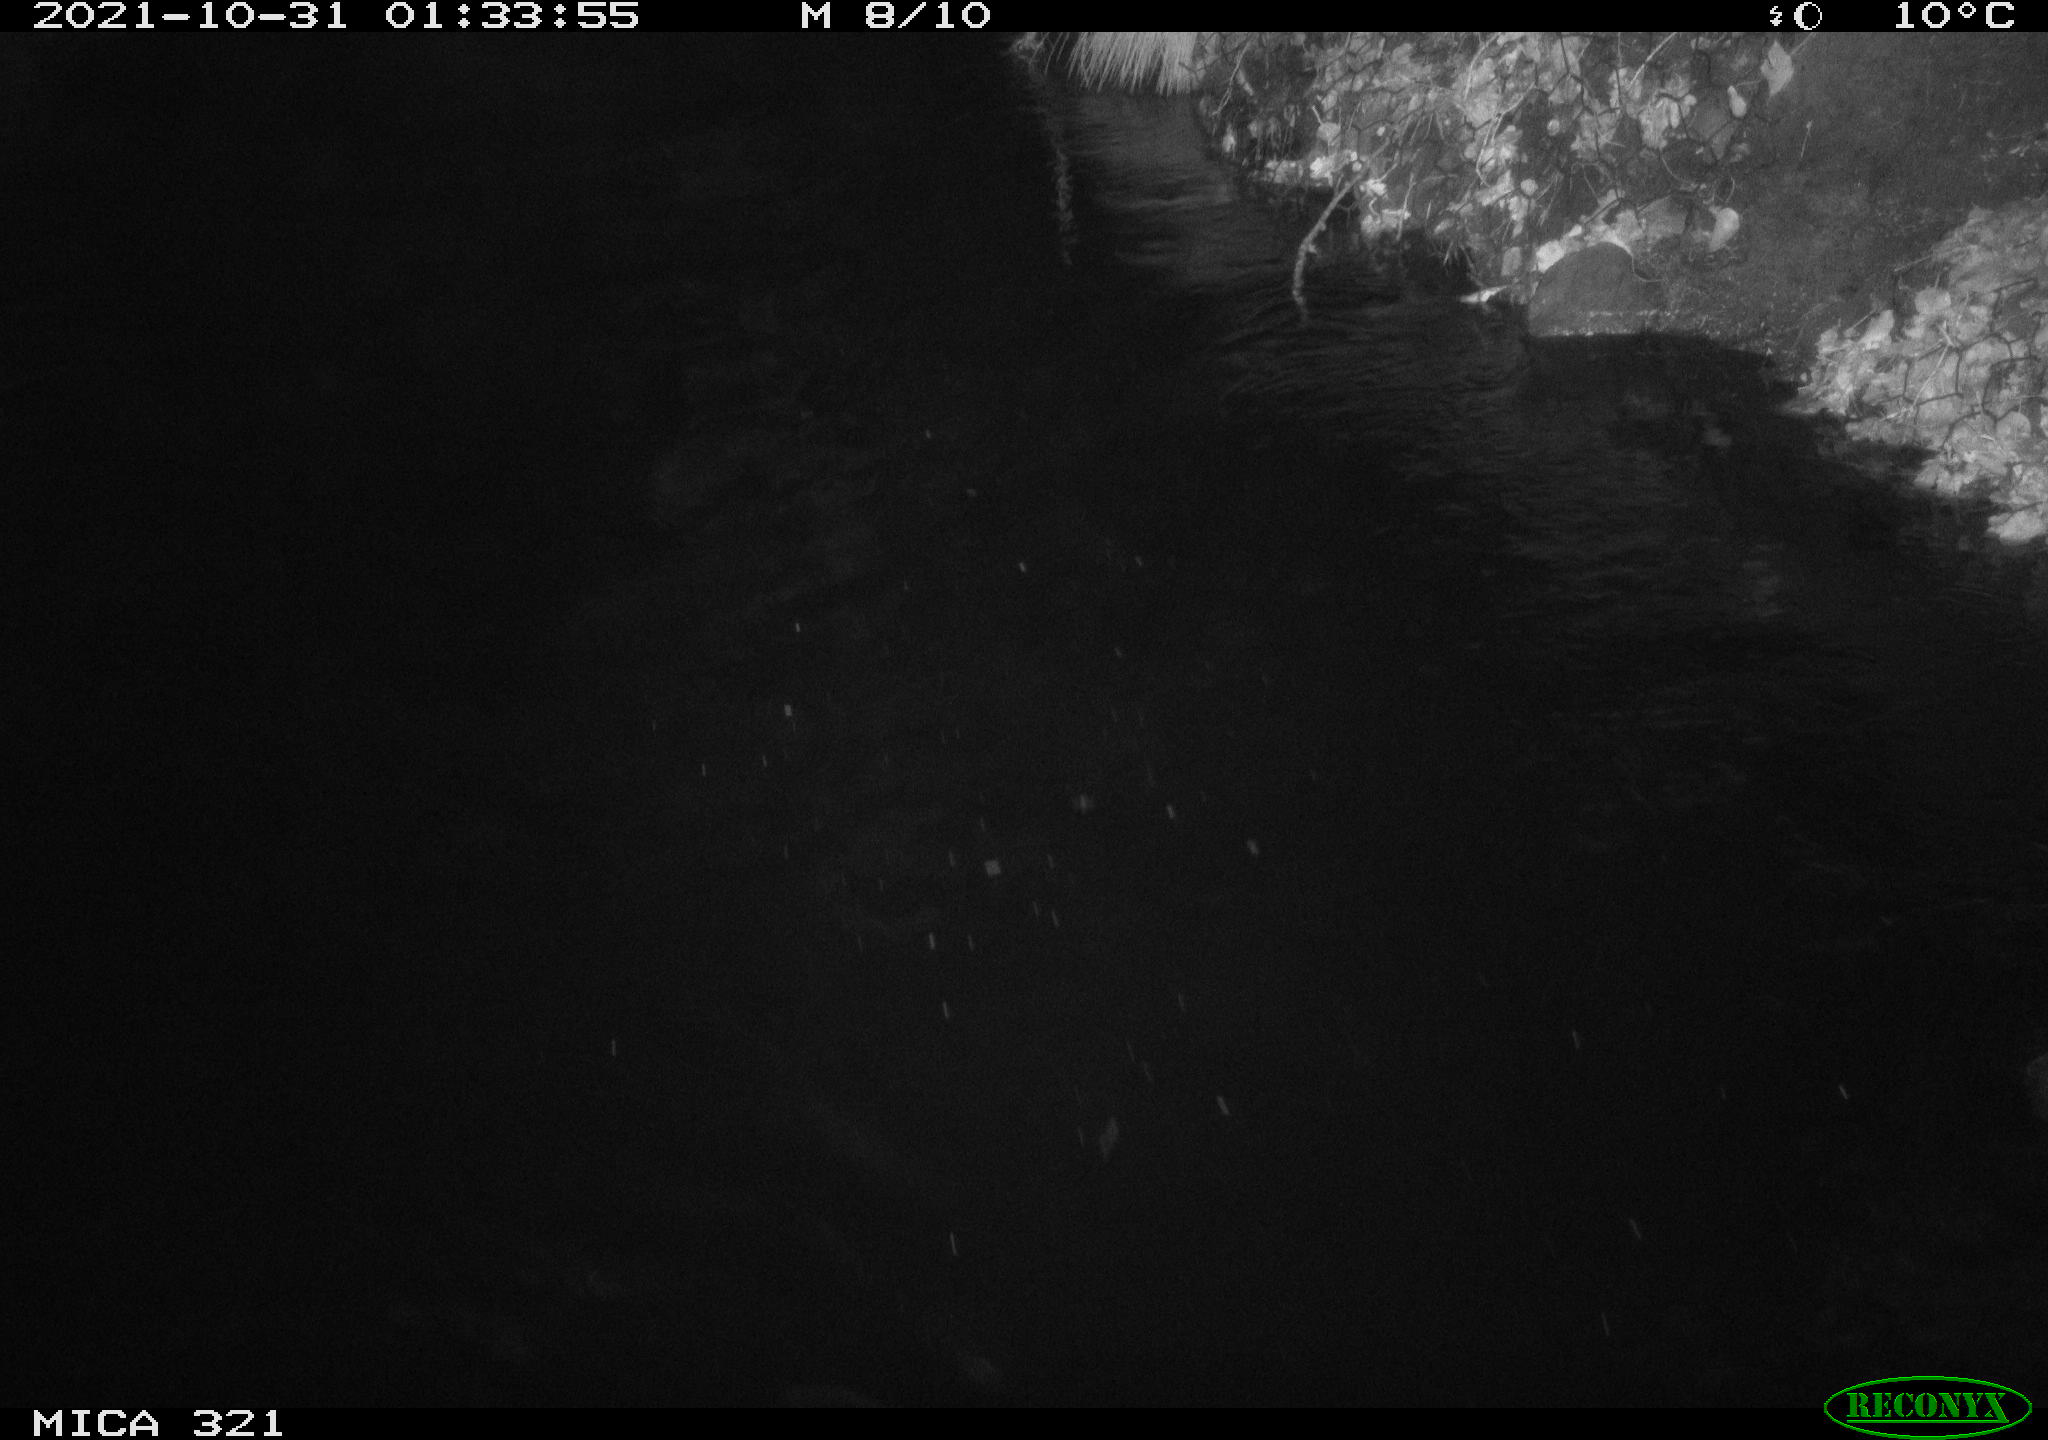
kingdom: Animalia
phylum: Chordata
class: Mammalia
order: Rodentia
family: Muridae
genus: Rattus
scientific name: Rattus norvegicus
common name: Brown rat
